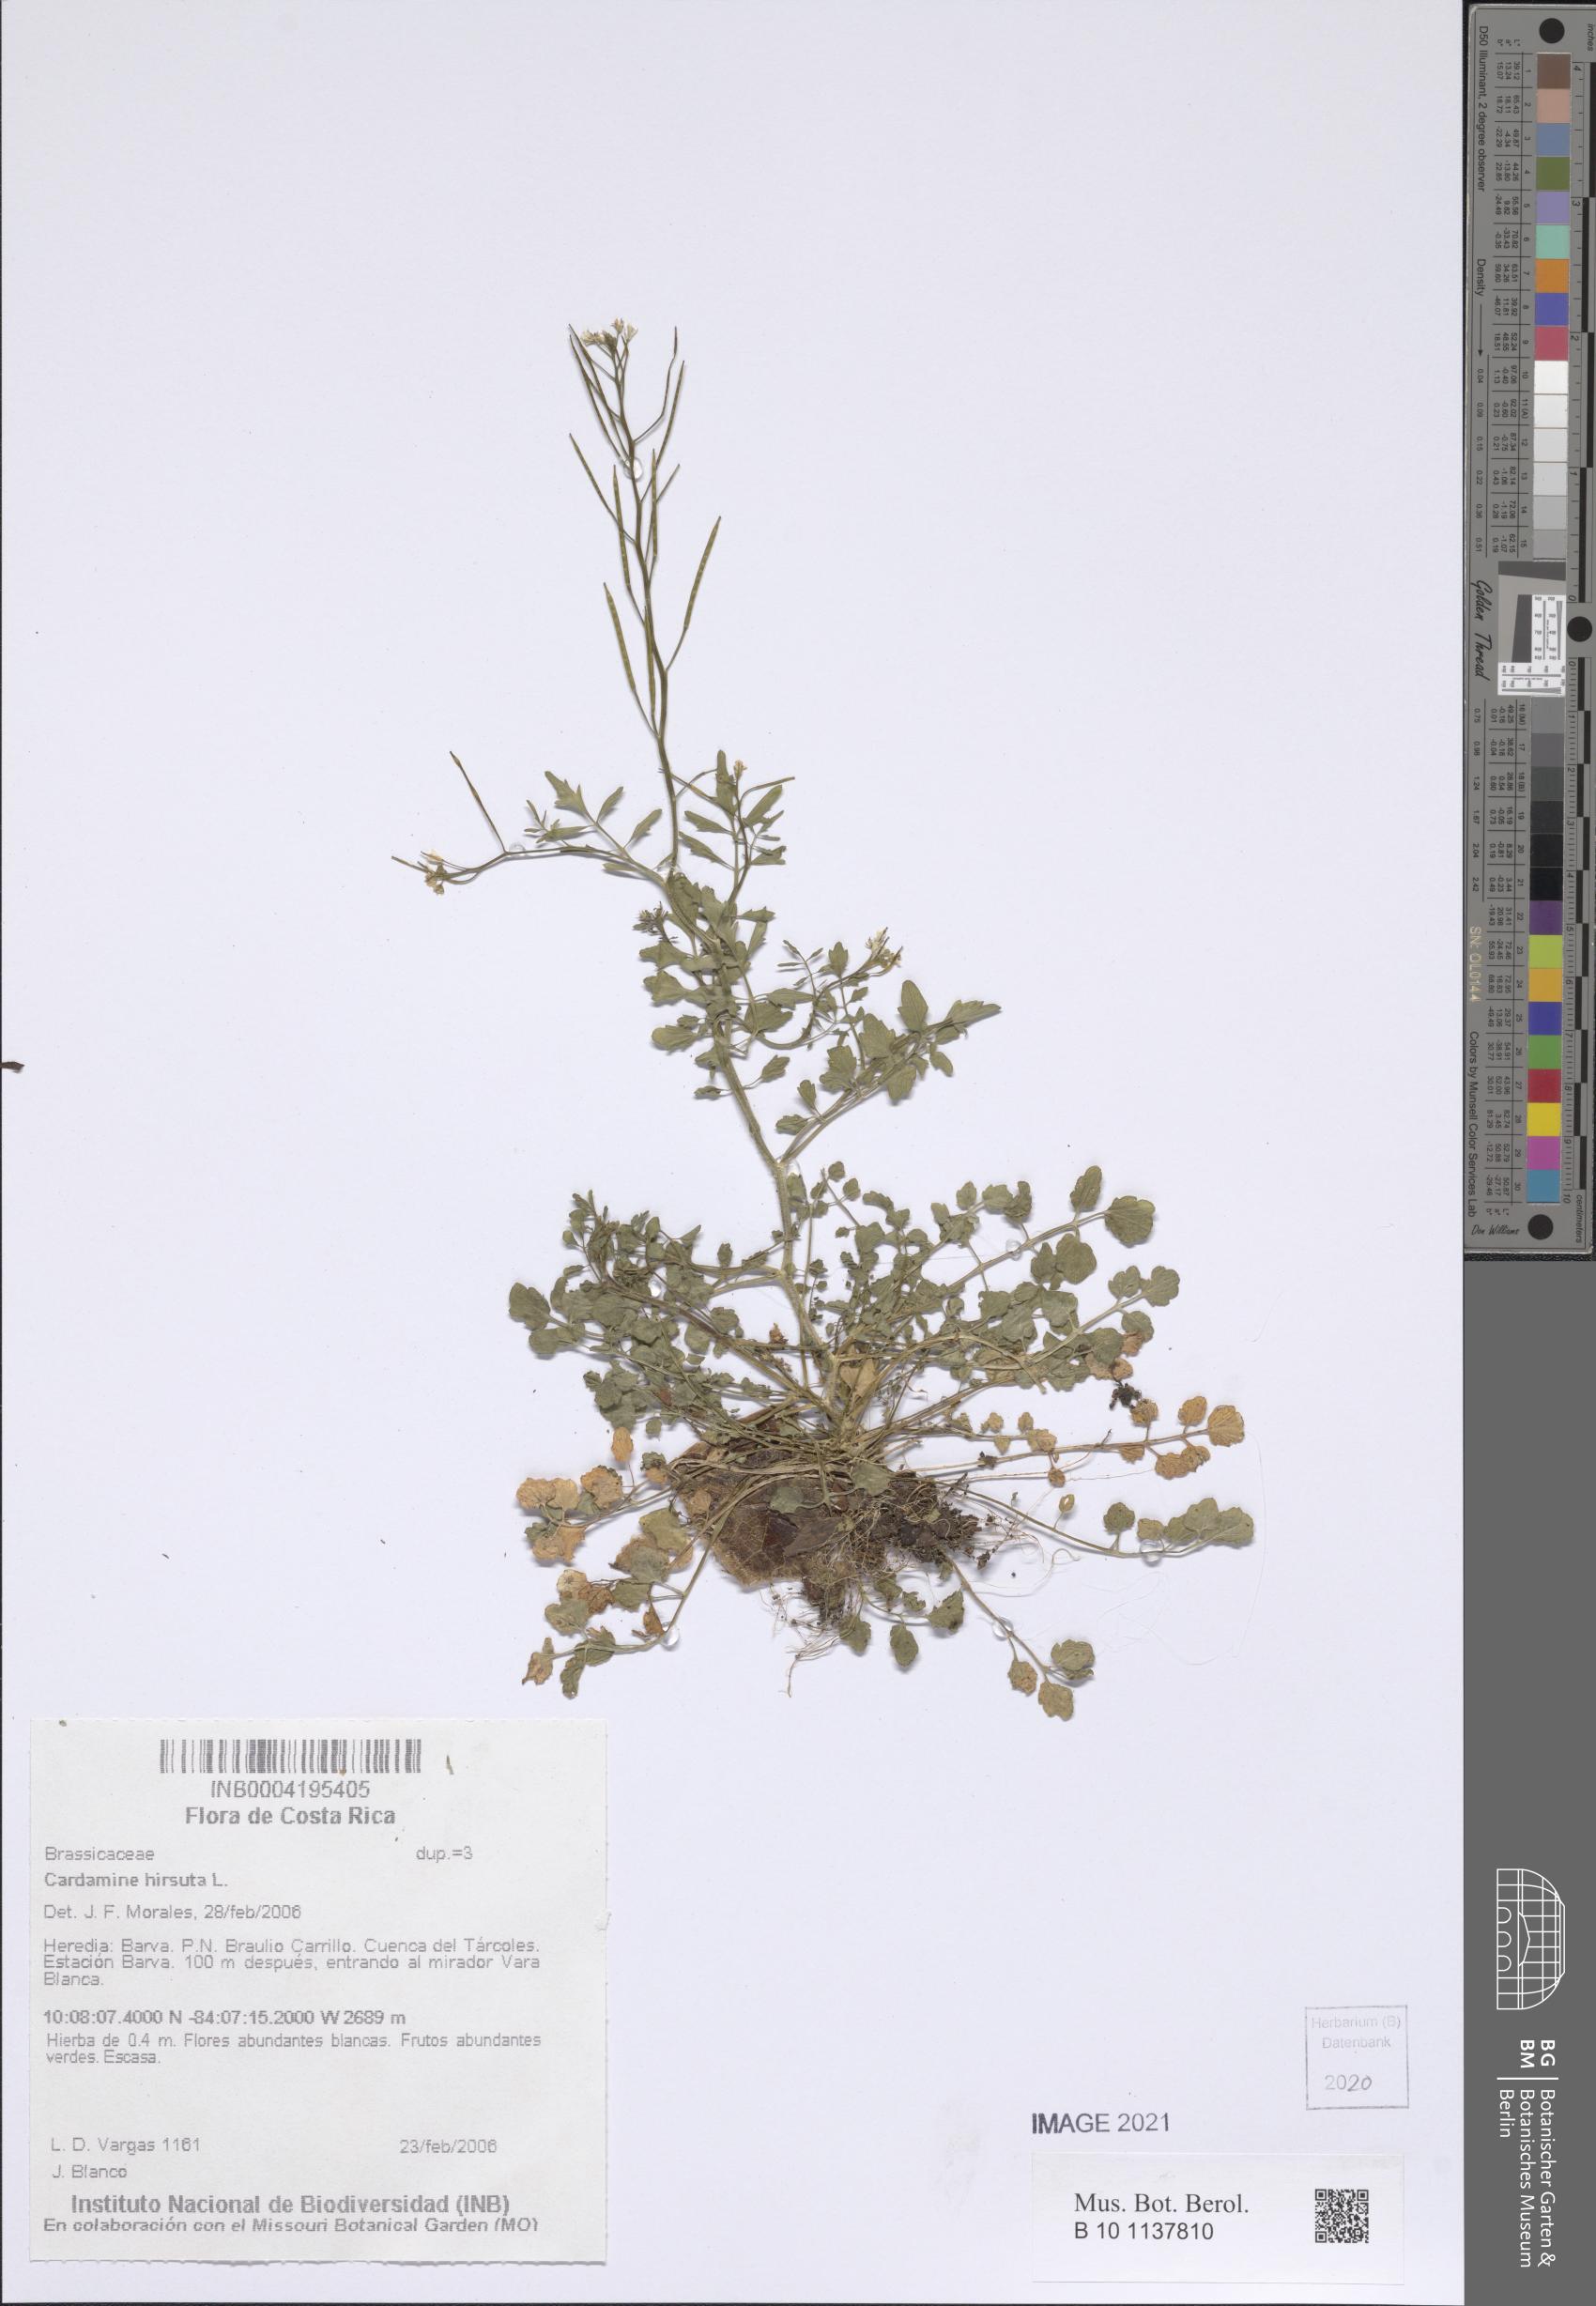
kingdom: Plantae
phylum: Tracheophyta
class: Magnoliopsida
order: Brassicales
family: Brassicaceae
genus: Cardamine
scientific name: Cardamine hirsuta
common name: Hairy bittercress
